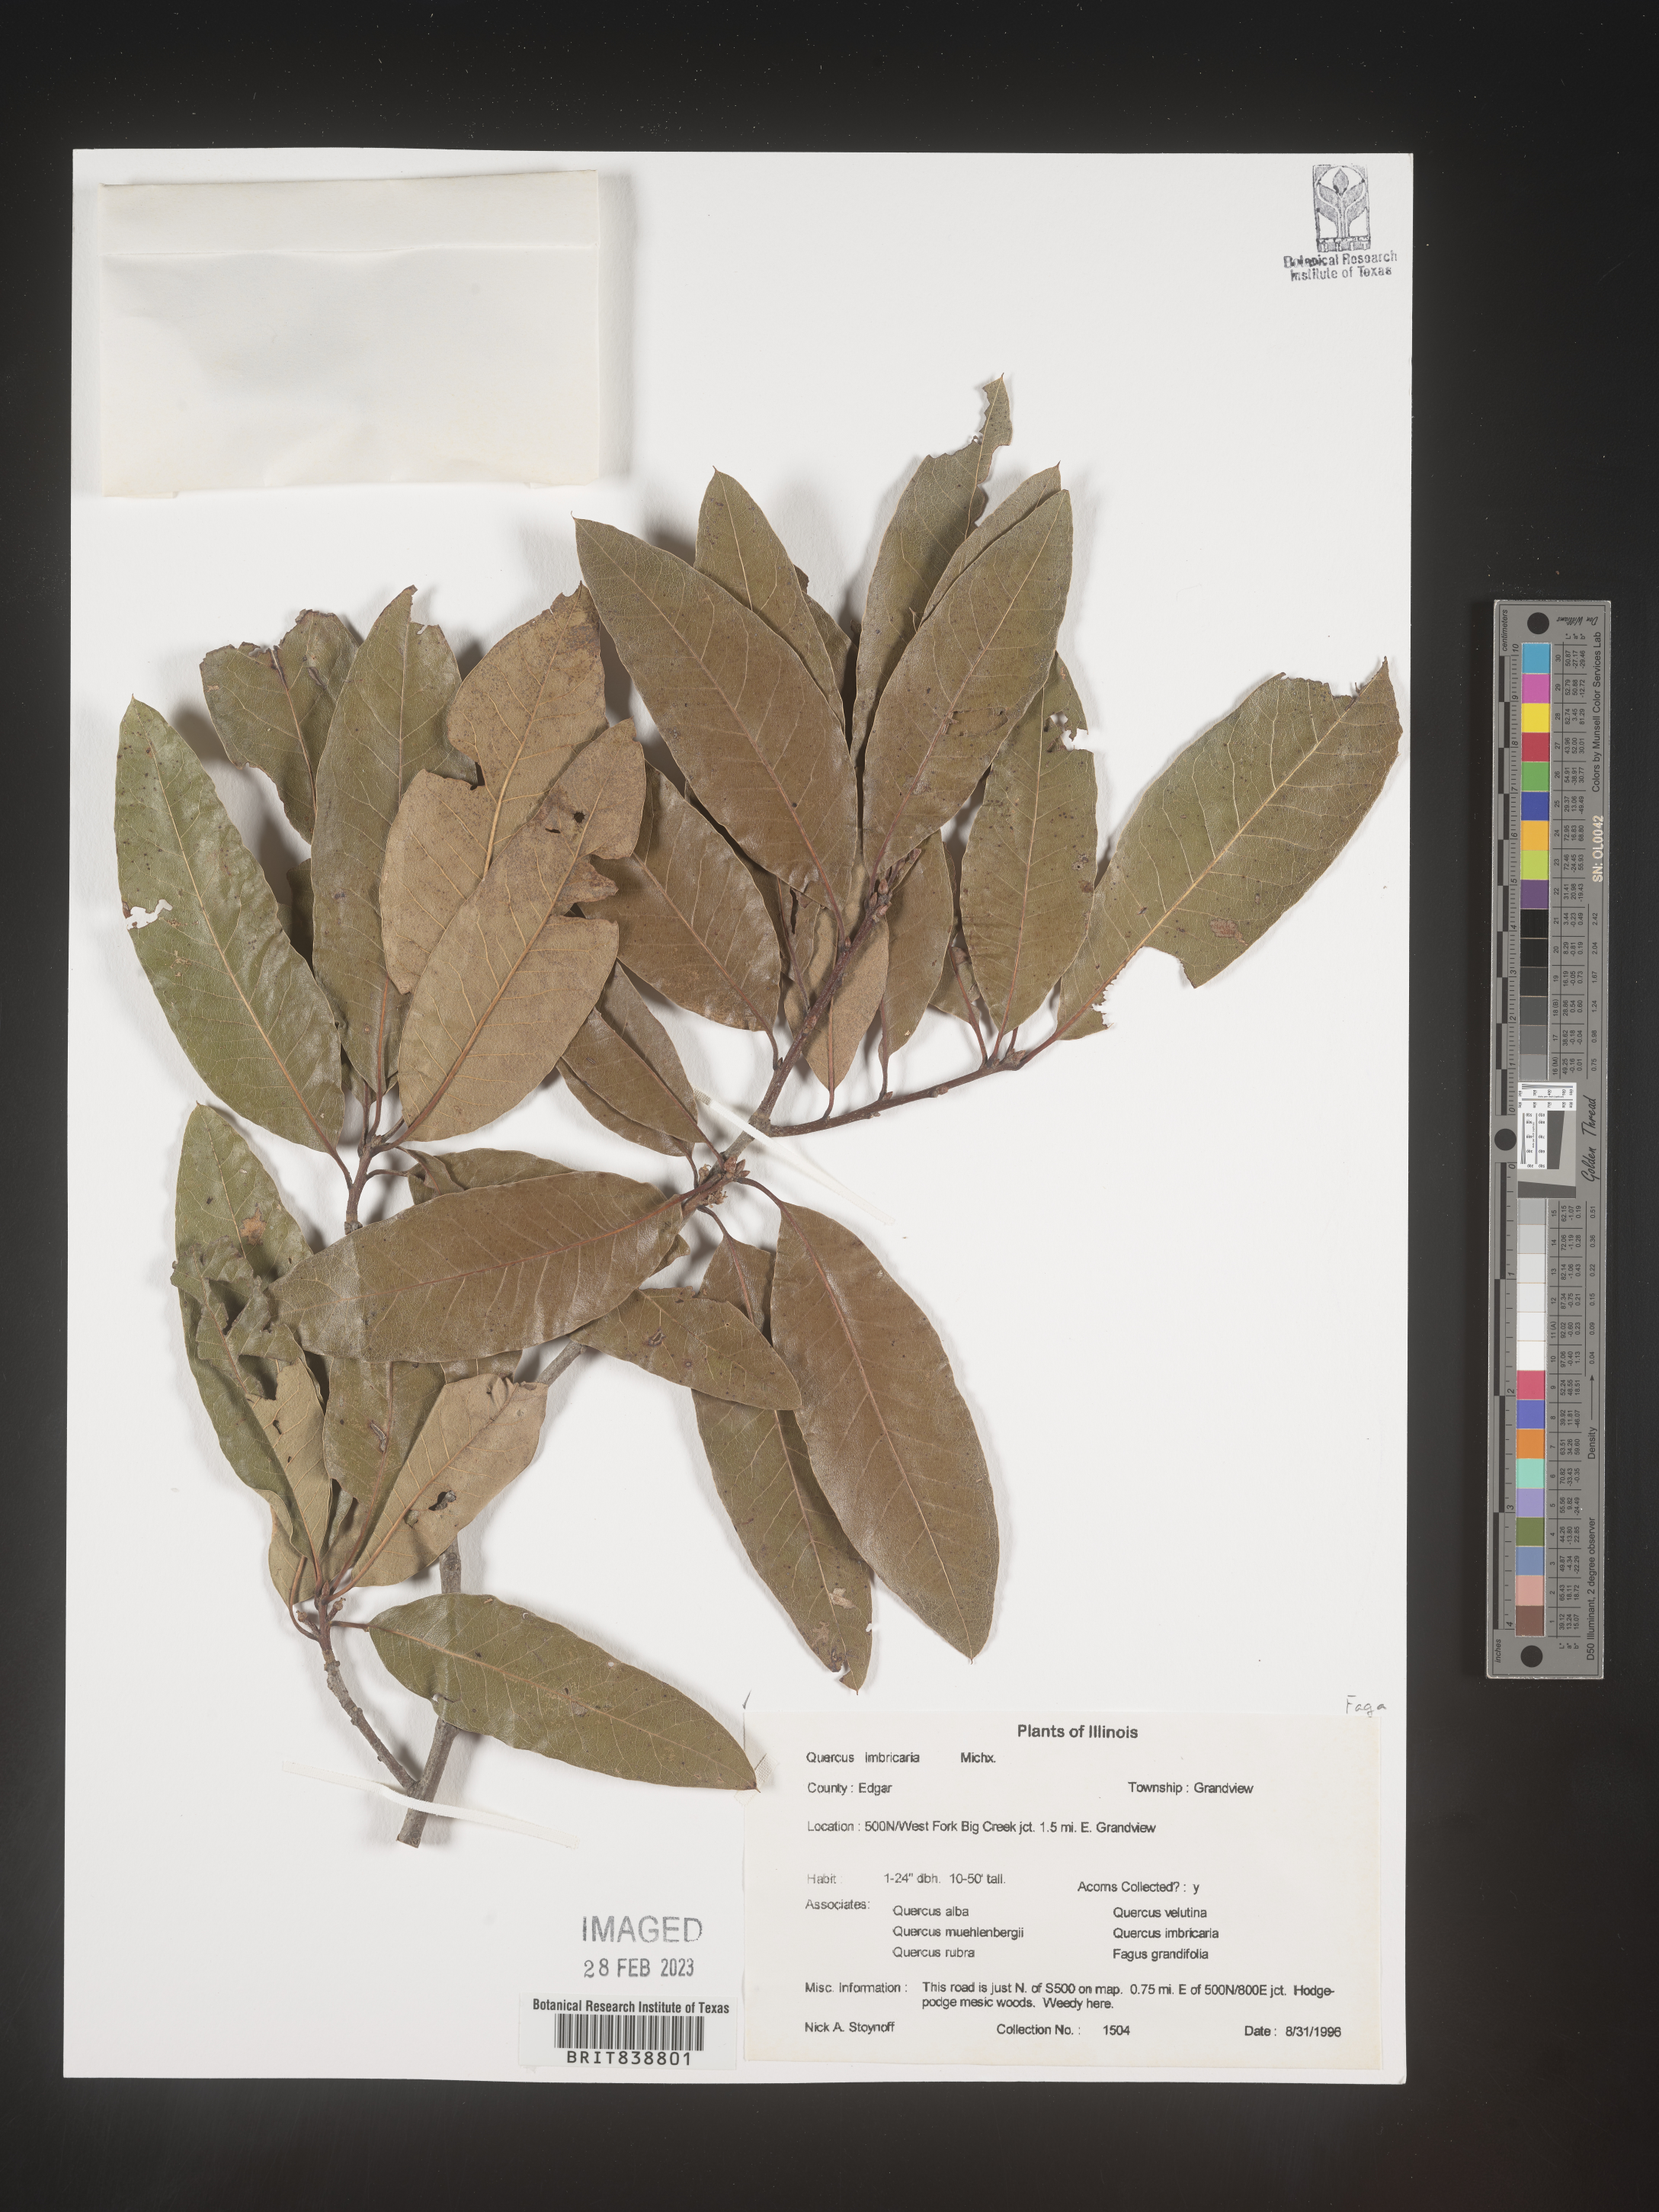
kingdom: Plantae
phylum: Tracheophyta
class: Magnoliopsida
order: Fagales
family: Fagaceae
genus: Quercus
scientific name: Quercus imbricaria
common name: Shingle oak
